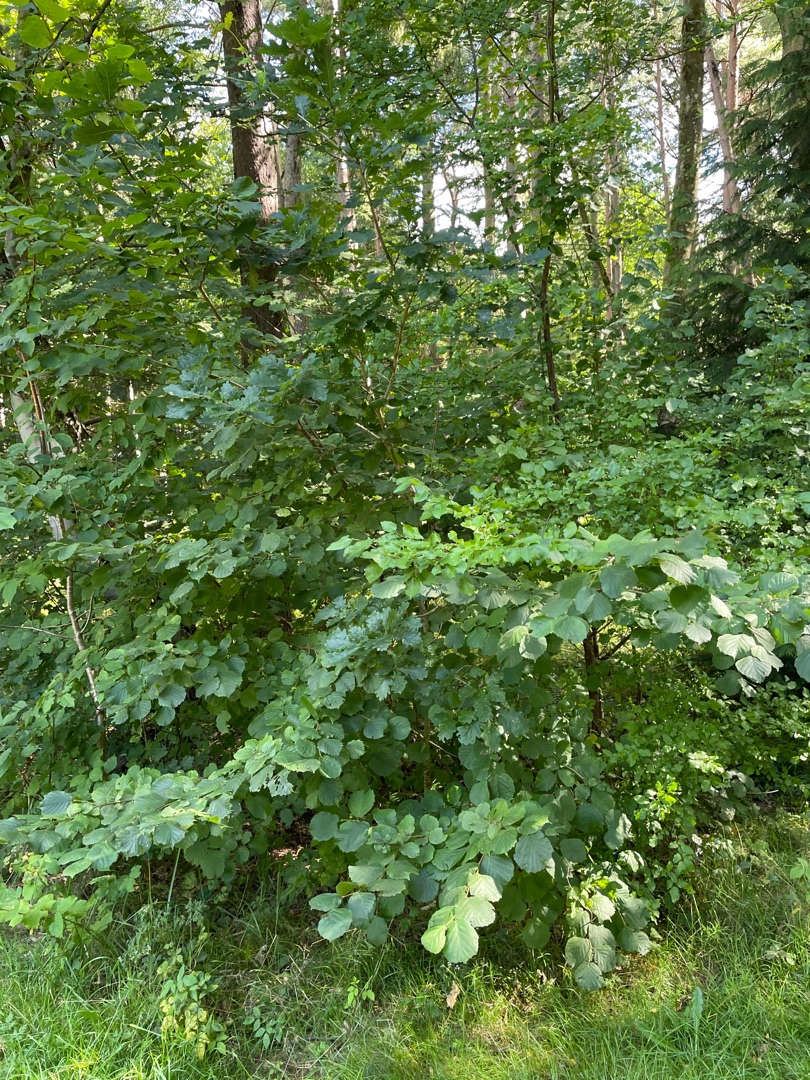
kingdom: Plantae
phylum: Tracheophyta
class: Magnoliopsida
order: Fagales
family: Betulaceae
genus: Corylus
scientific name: Corylus avellana
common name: Hassel
